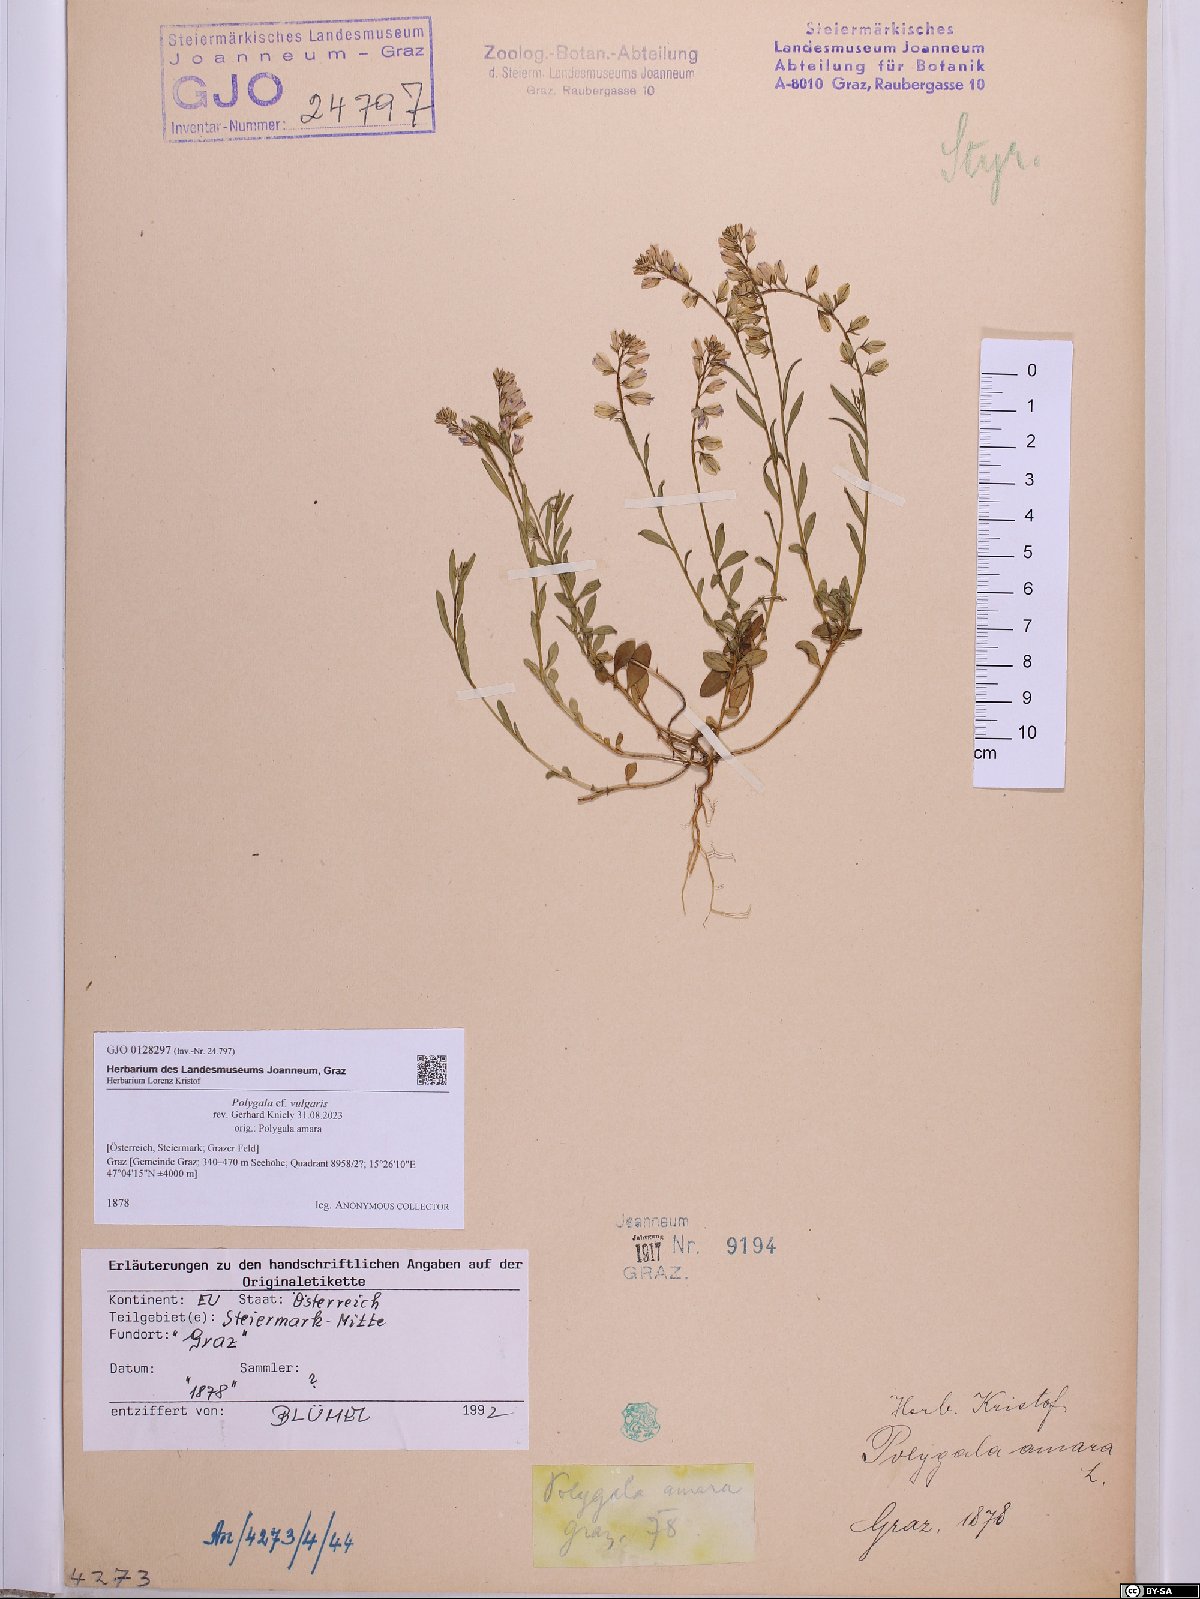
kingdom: Plantae
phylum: Tracheophyta
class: Magnoliopsida
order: Fabales
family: Polygalaceae
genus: Polygala
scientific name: Polygala vulgaris
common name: Common milkwort
